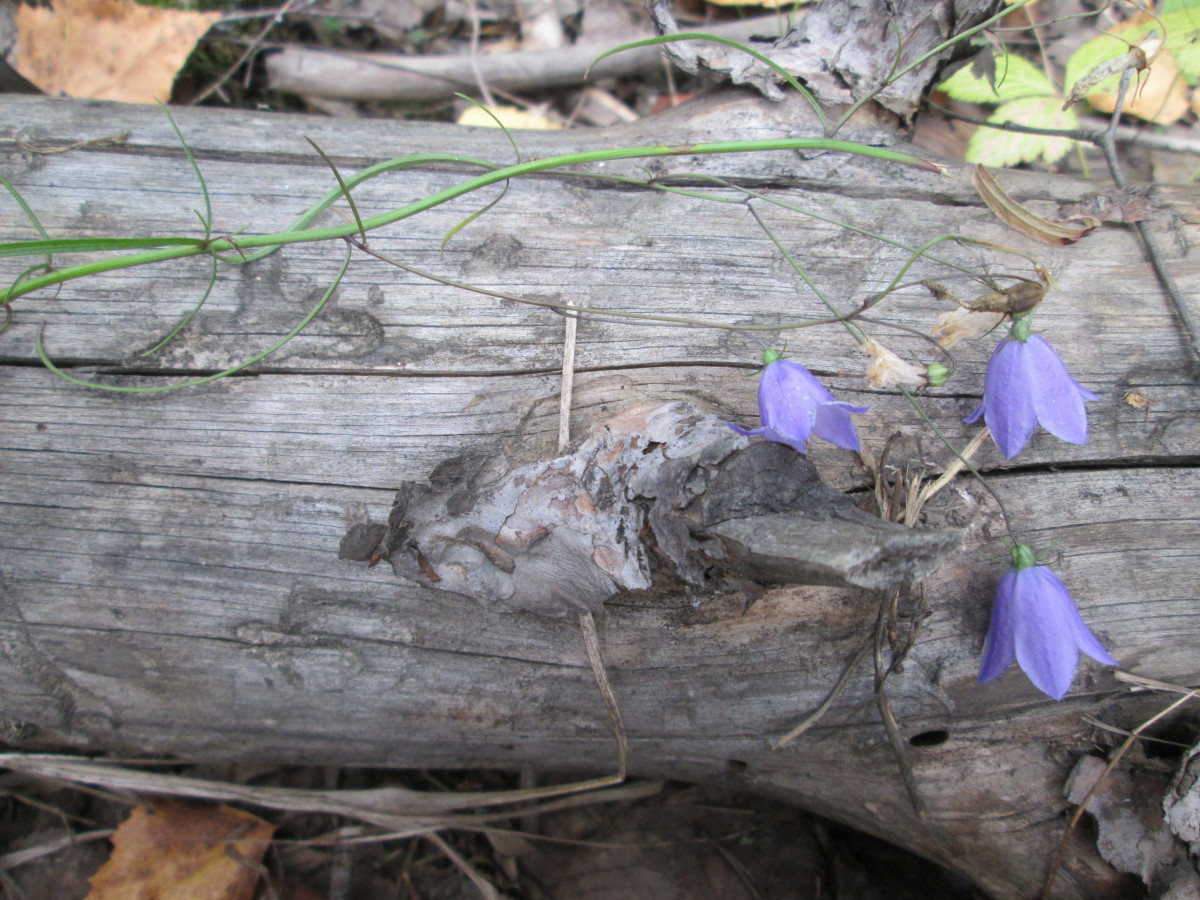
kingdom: Plantae
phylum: Tracheophyta
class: Magnoliopsida
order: Asterales
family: Campanulaceae
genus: Campanula
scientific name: Campanula rotundifolia
